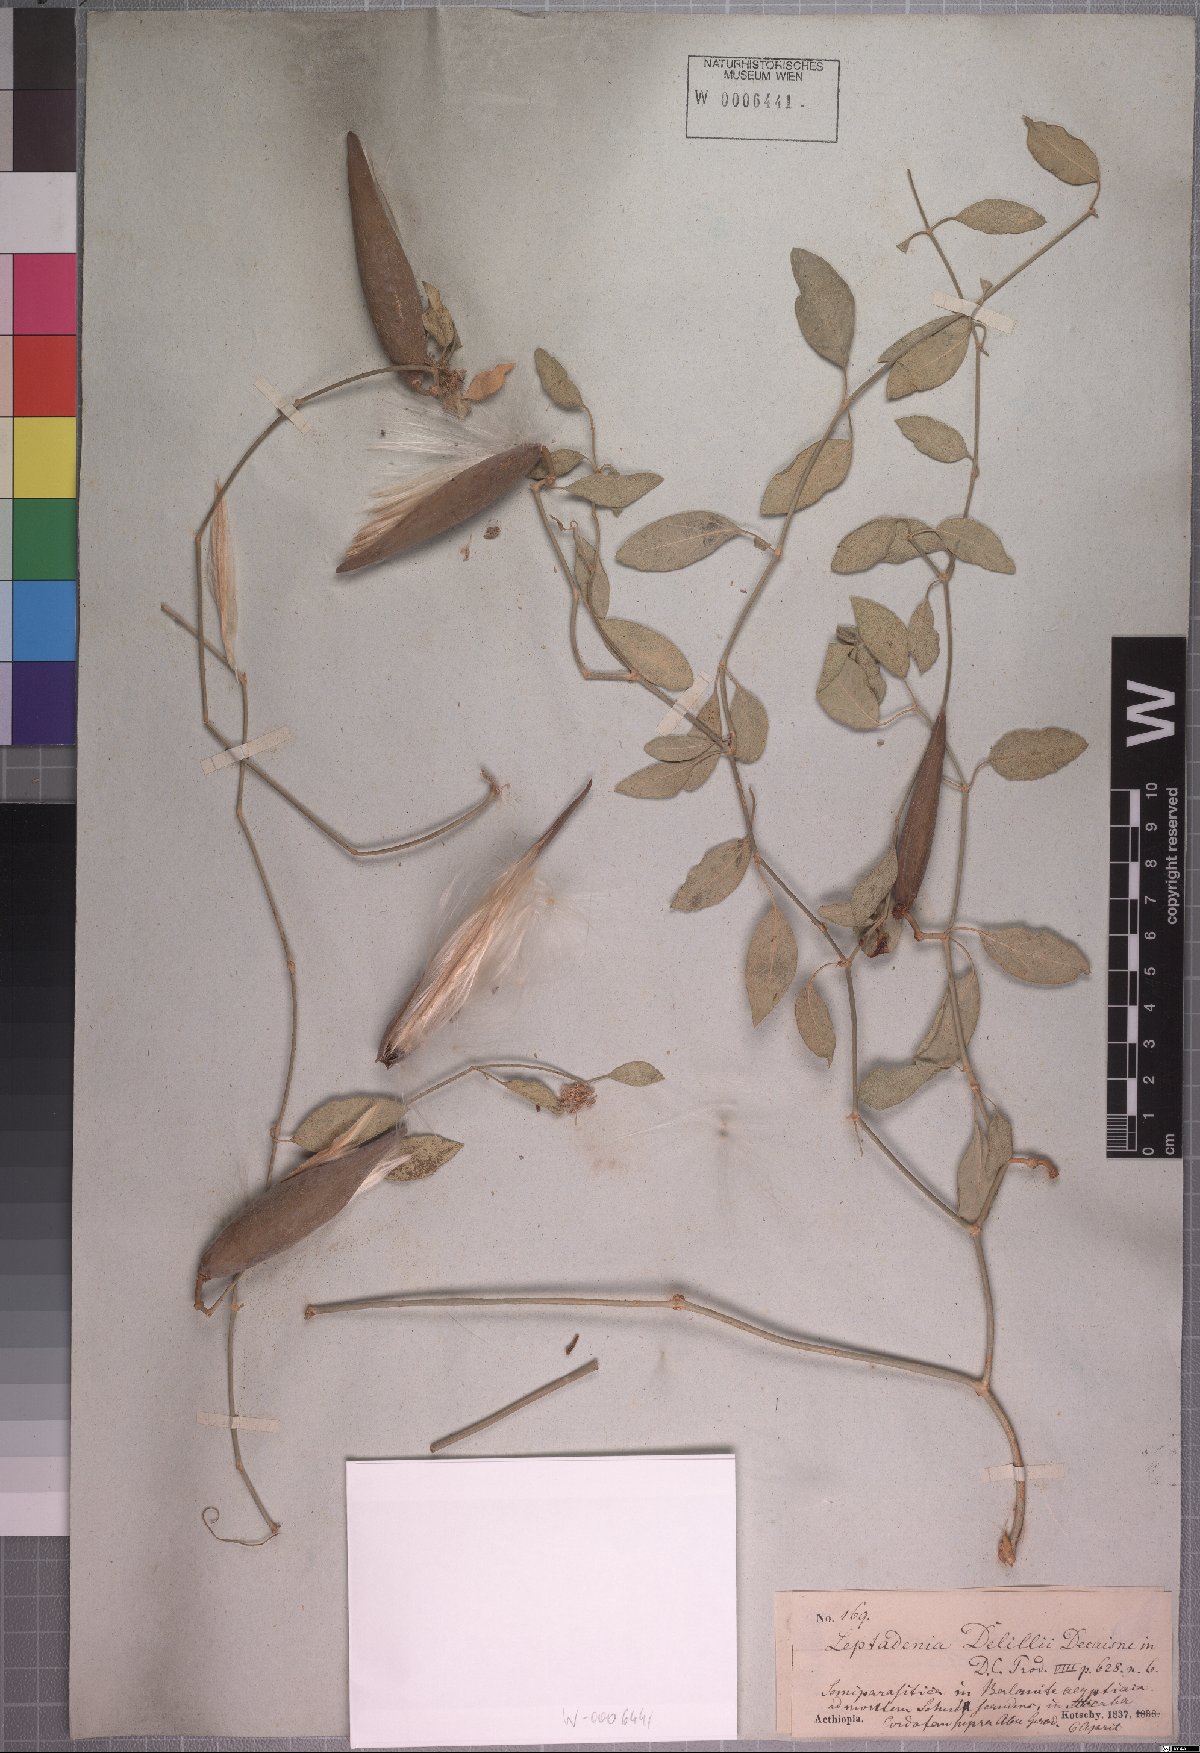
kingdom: Plantae
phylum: Tracheophyta
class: Magnoliopsida
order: Gentianales
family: Apocynaceae
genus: Leptadenia
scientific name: Leptadenia arborea
